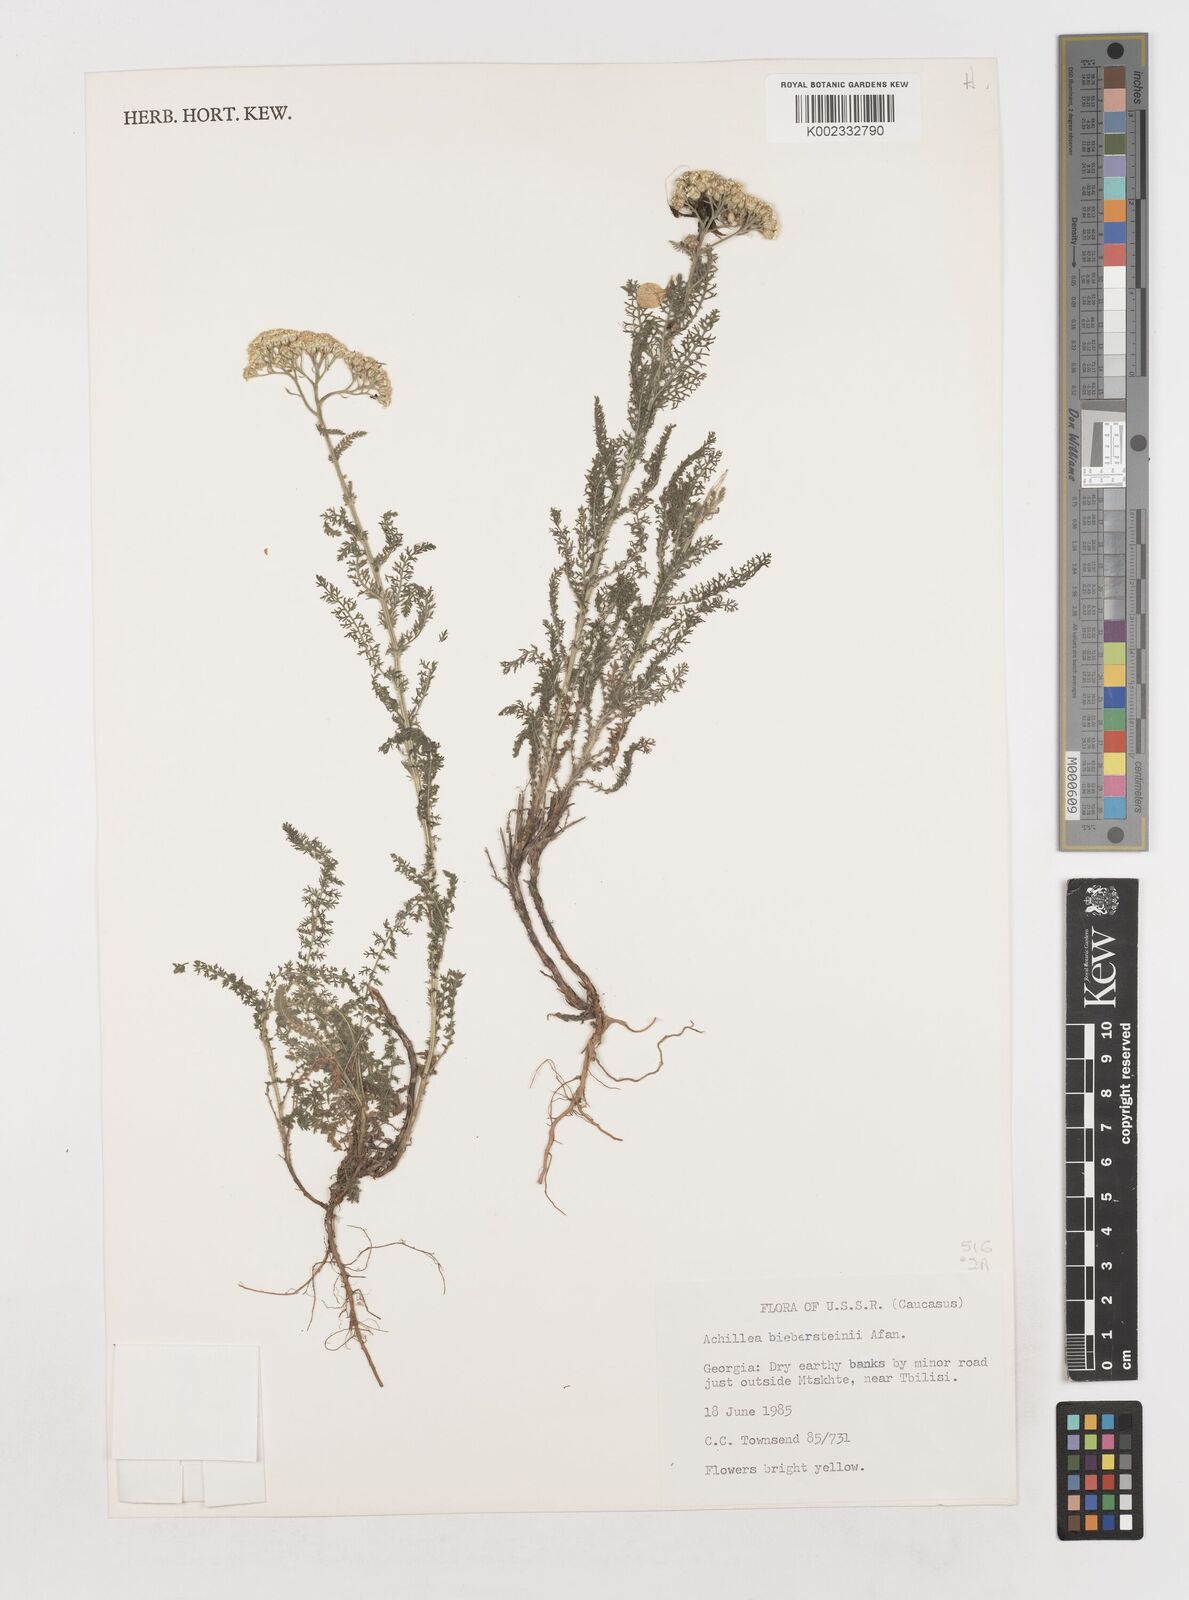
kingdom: Plantae
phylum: Tracheophyta
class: Magnoliopsida
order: Asterales
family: Asteraceae
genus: Achillea
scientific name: Achillea arabica
